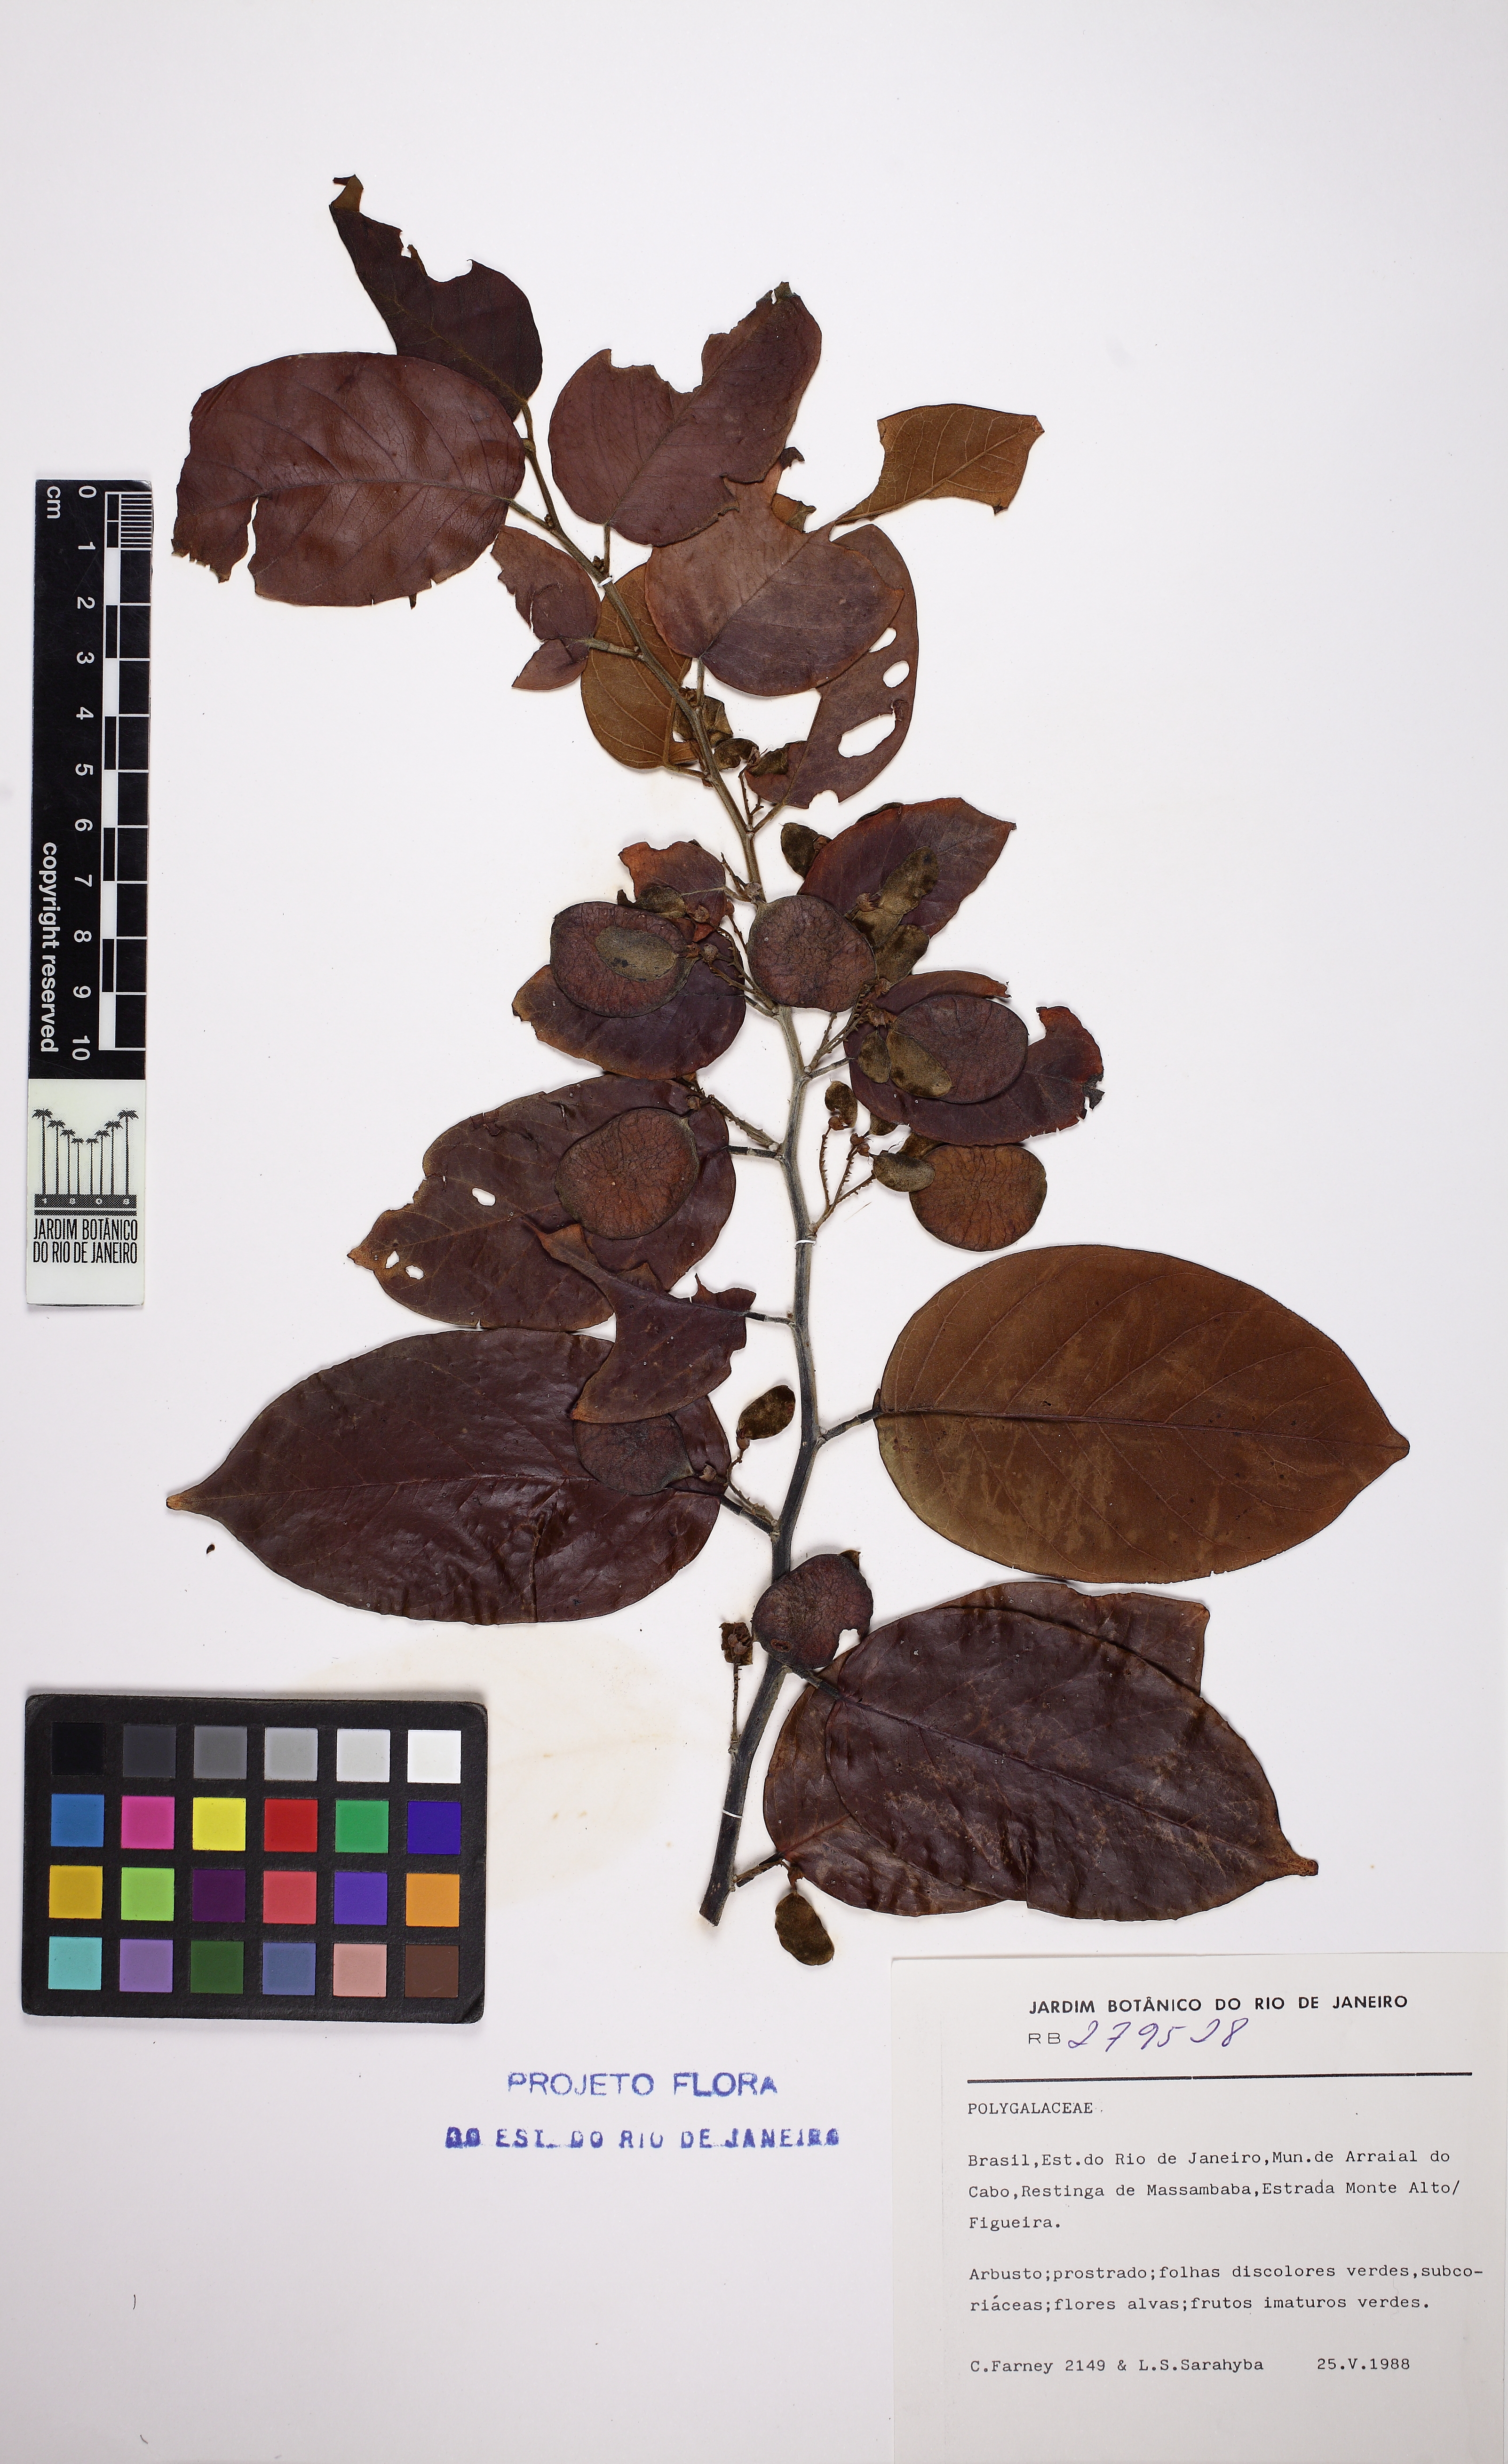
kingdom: Plantae
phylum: Tracheophyta
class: Magnoliopsida
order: Fabales
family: Fabaceae
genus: Dalbergia
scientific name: Dalbergia ecastaphyllum
